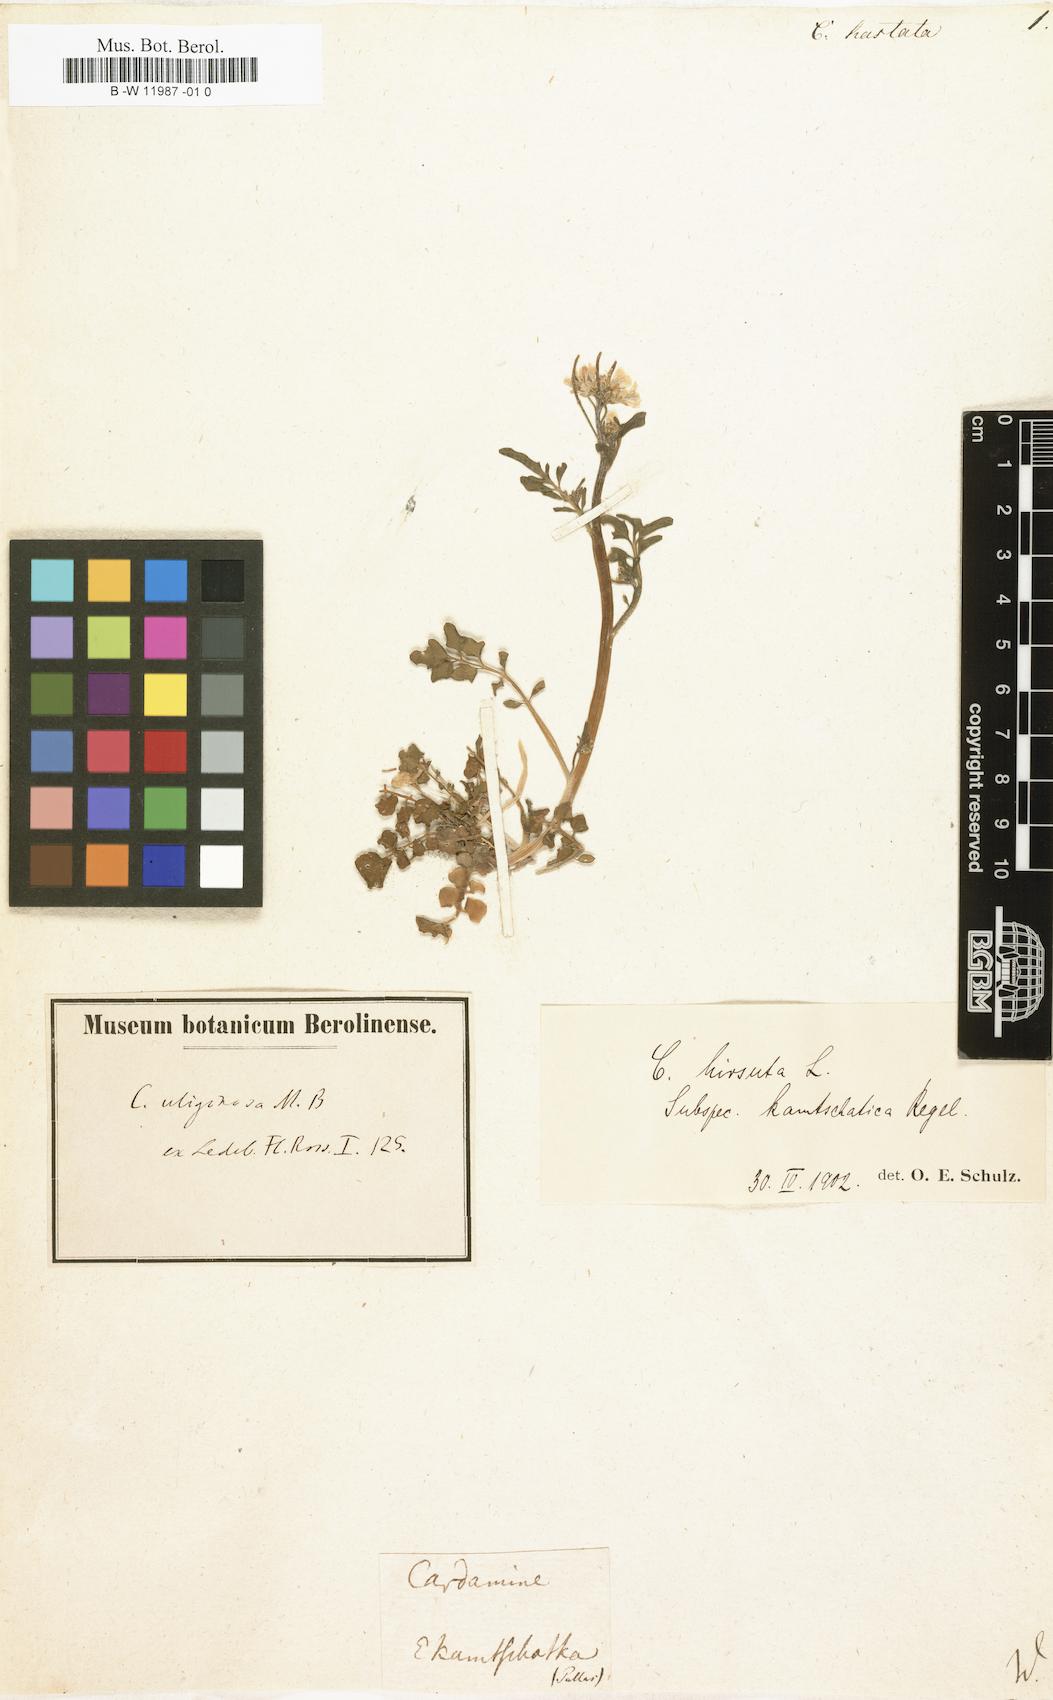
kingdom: Plantae
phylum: Tracheophyta
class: Magnoliopsida
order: Brassicales
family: Brassicaceae
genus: Cardamine
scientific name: Cardamine uliginosa
